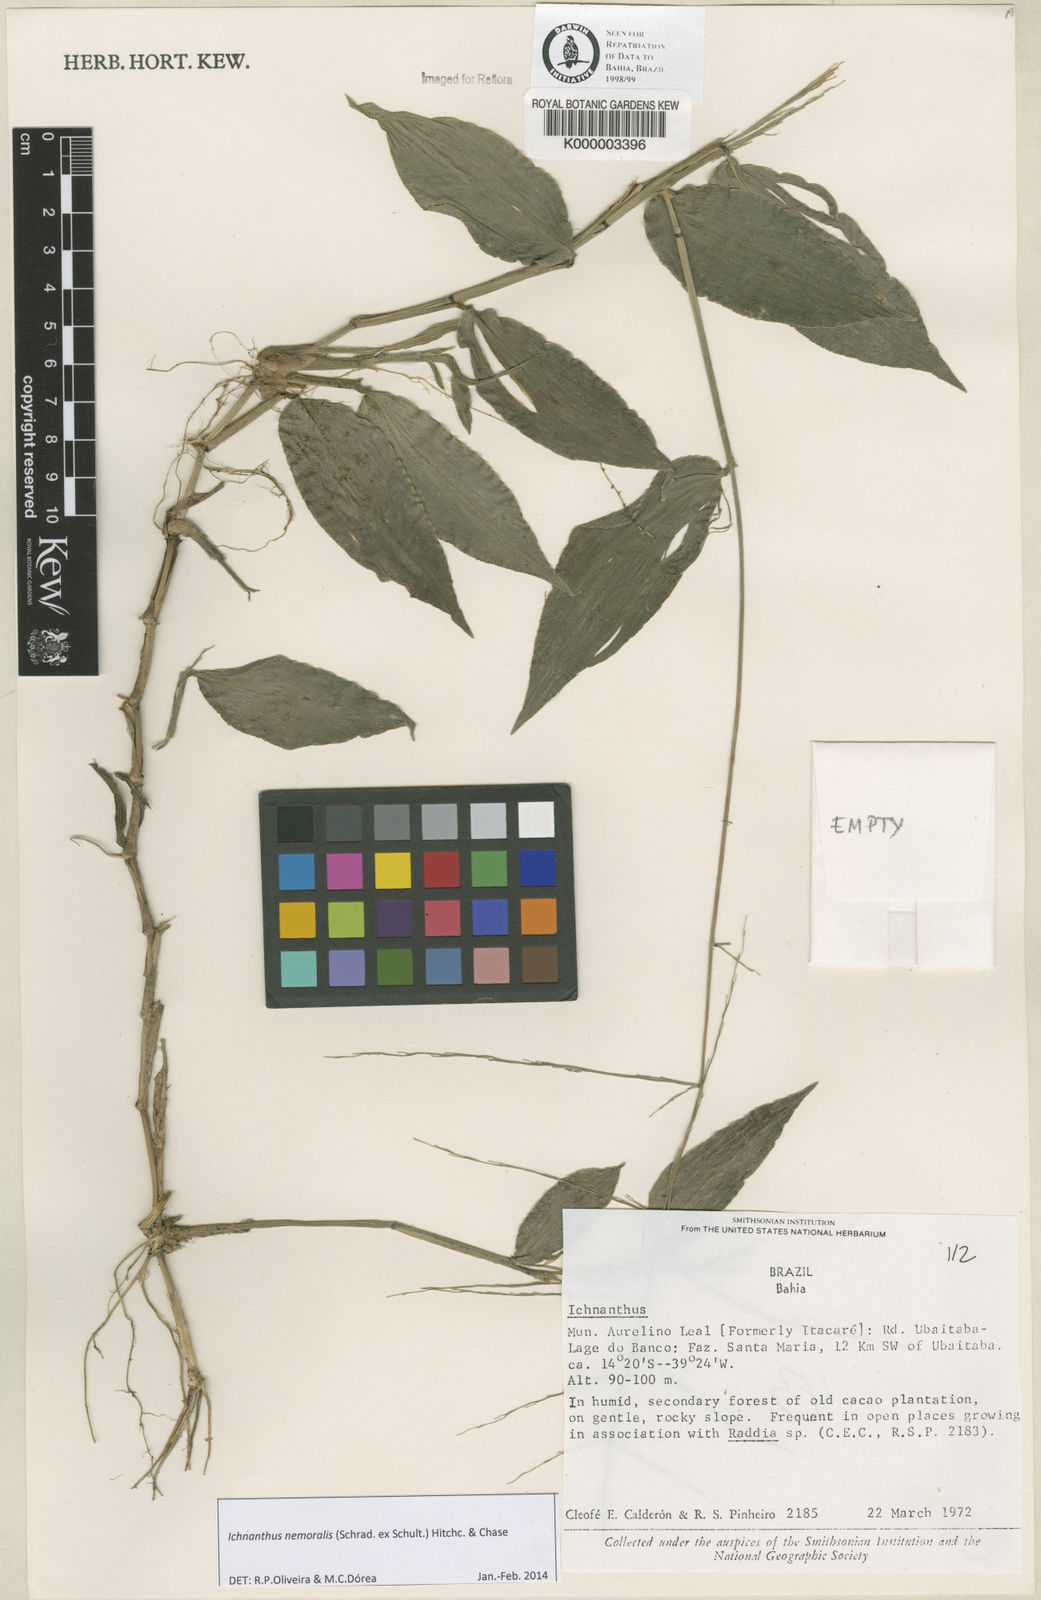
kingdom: Plantae
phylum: Tracheophyta
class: Liliopsida
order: Poales
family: Poaceae
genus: Ichnanthus
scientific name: Ichnanthus nemoralis
